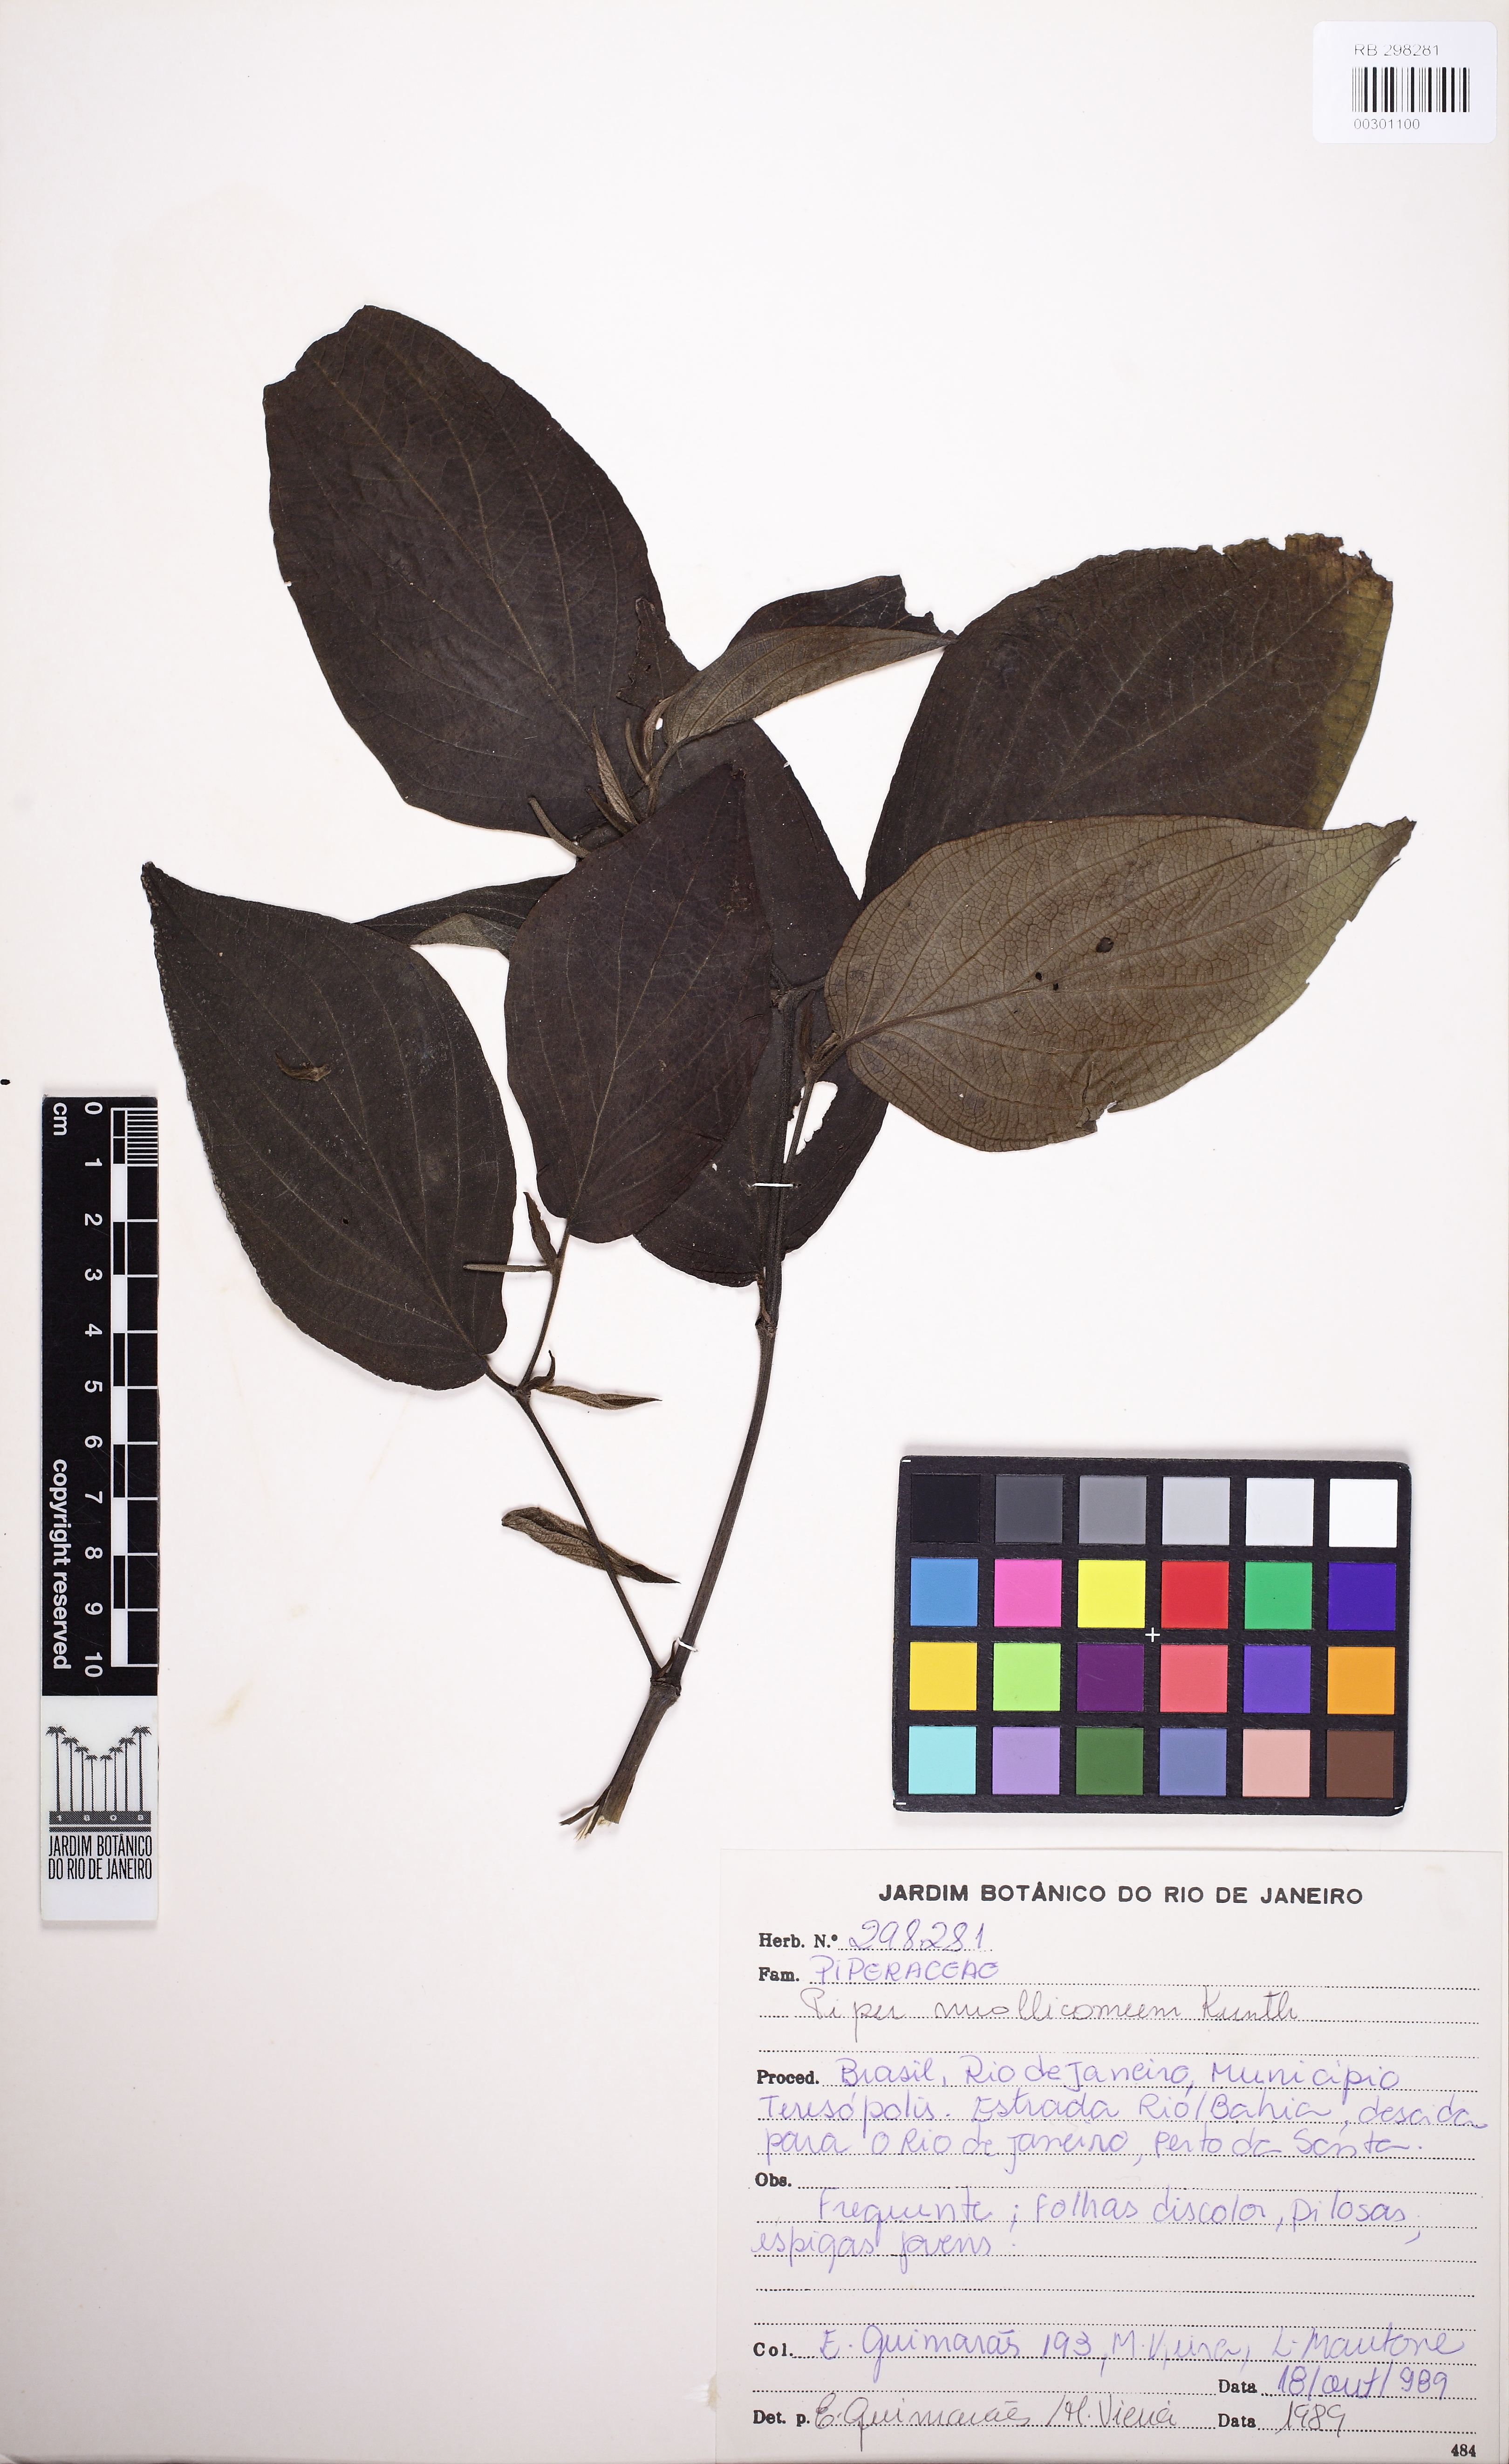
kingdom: Plantae
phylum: Tracheophyta
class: Magnoliopsida
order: Piperales
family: Piperaceae
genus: Piper
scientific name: Piper mollicomum
